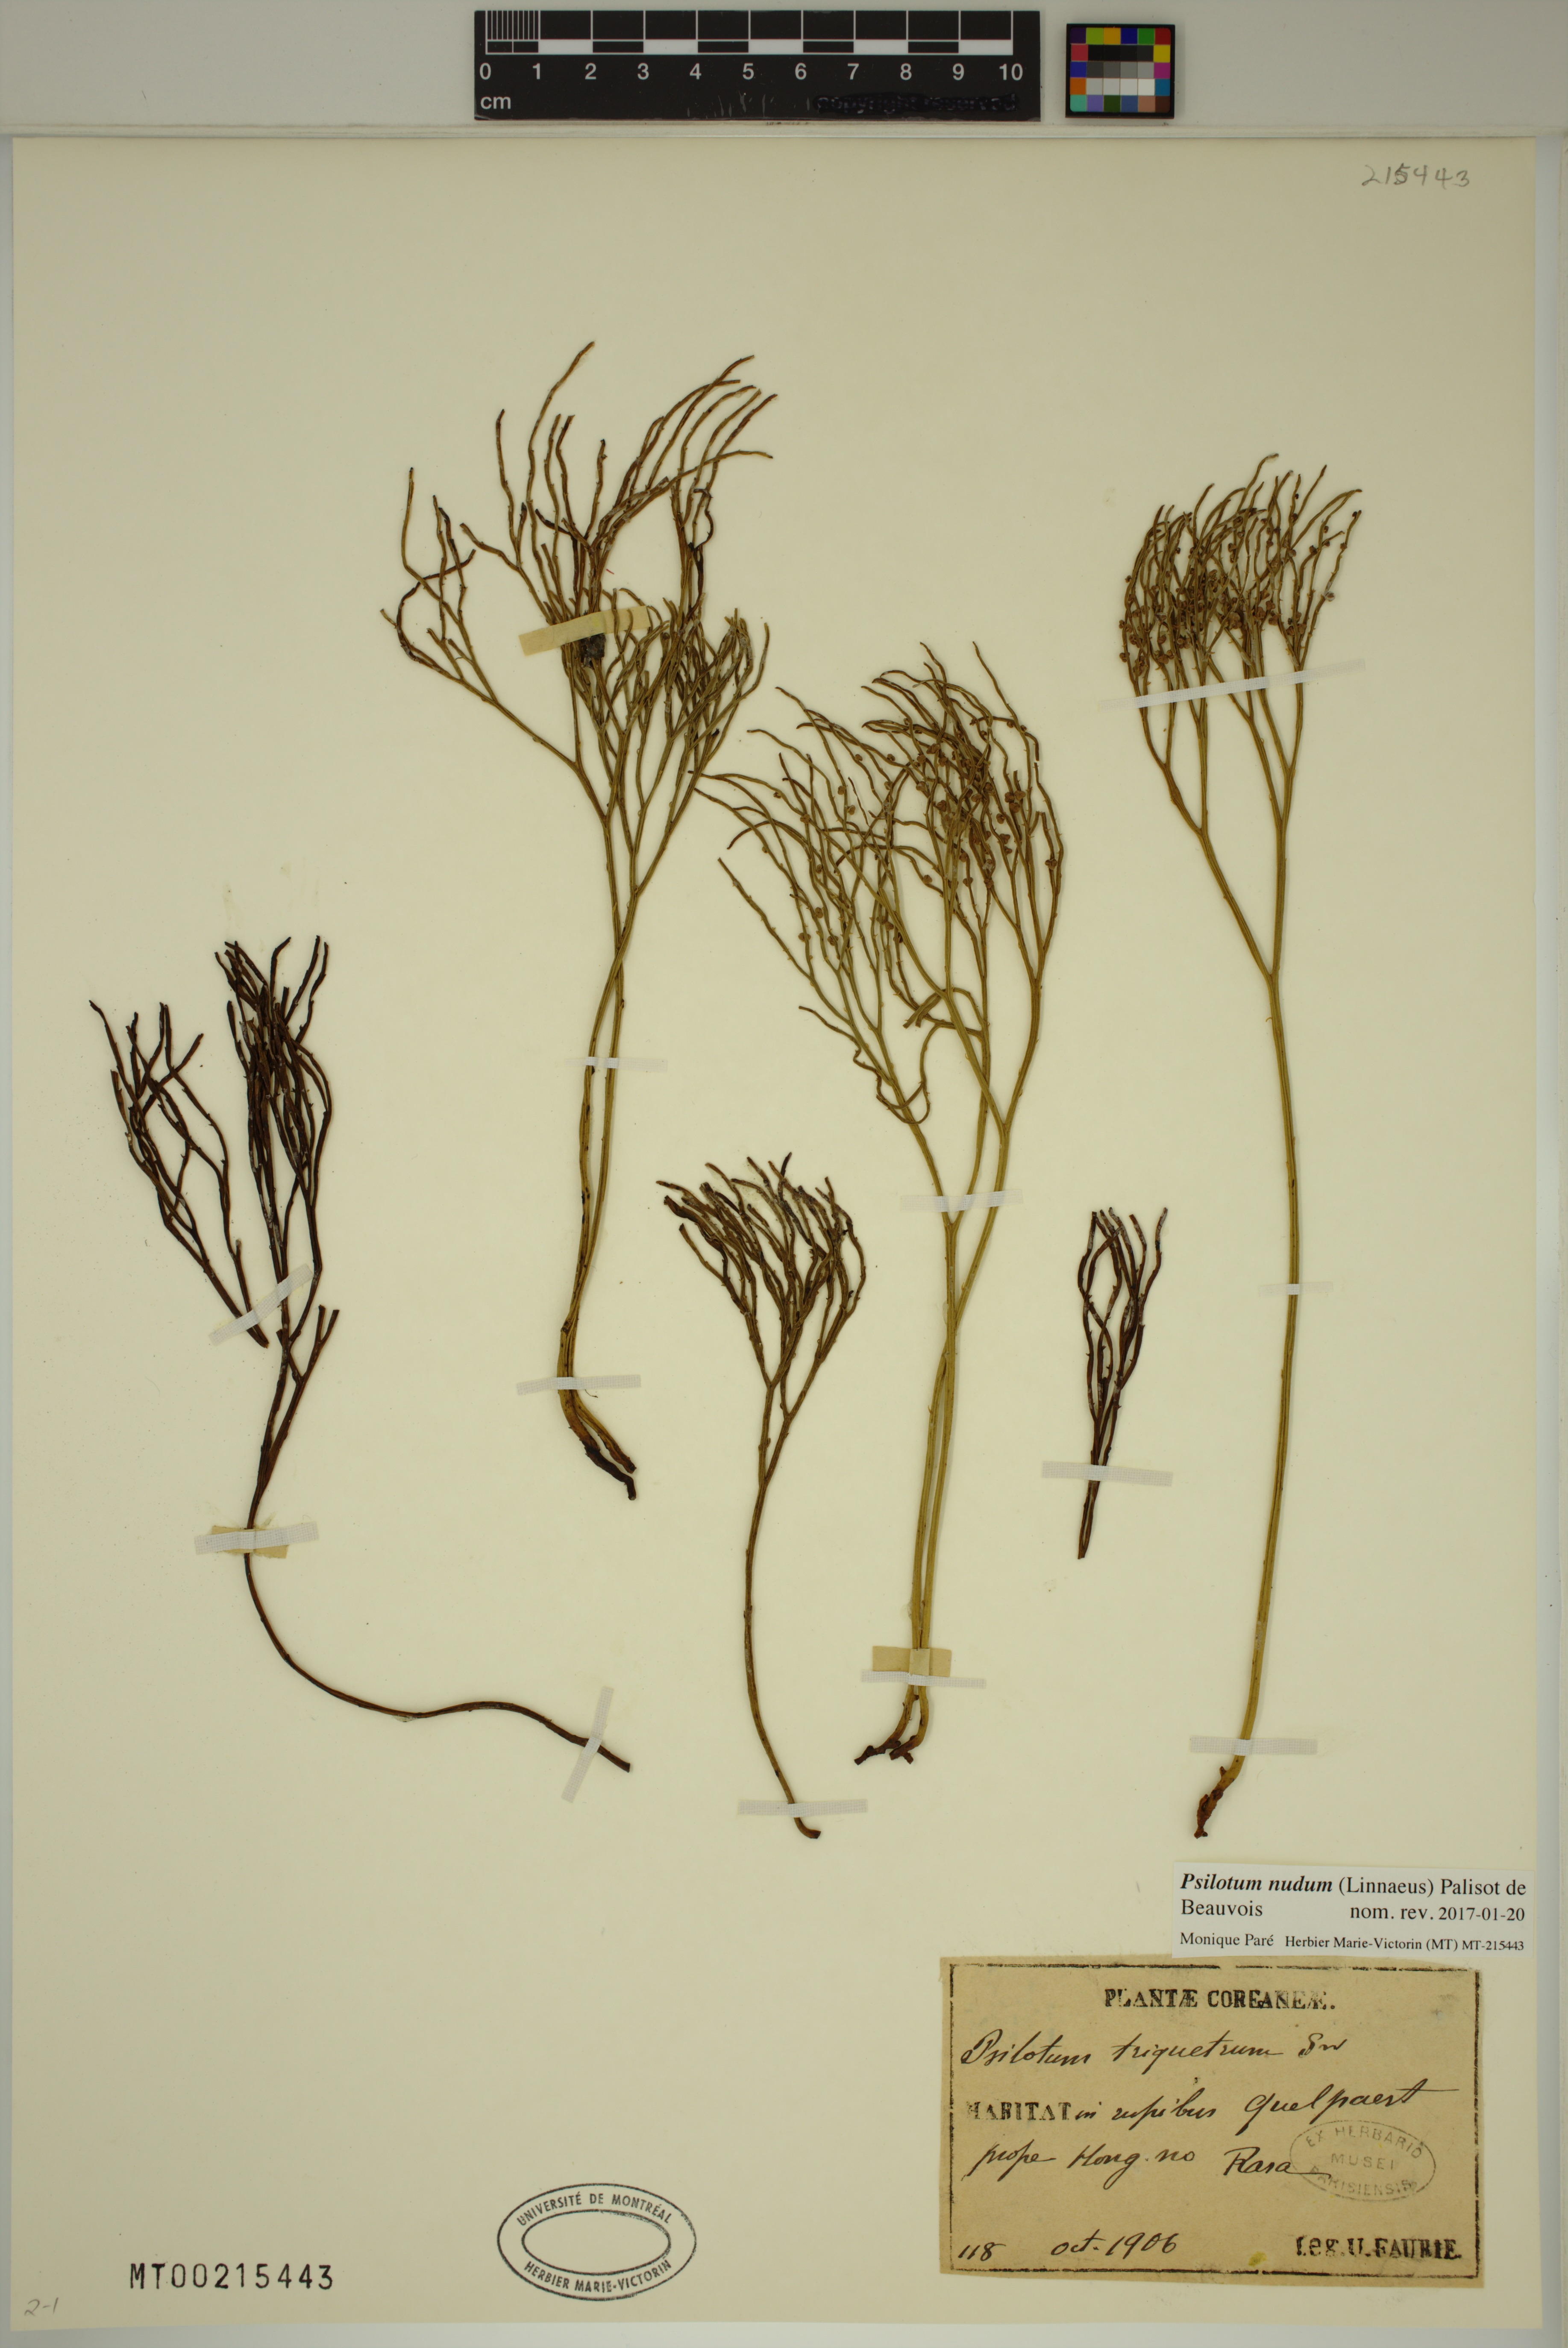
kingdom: Plantae
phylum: Tracheophyta
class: Polypodiopsida
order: Psilotales
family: Psilotaceae
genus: Psilotum
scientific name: Psilotum nudum
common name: Skeleton fork fern
